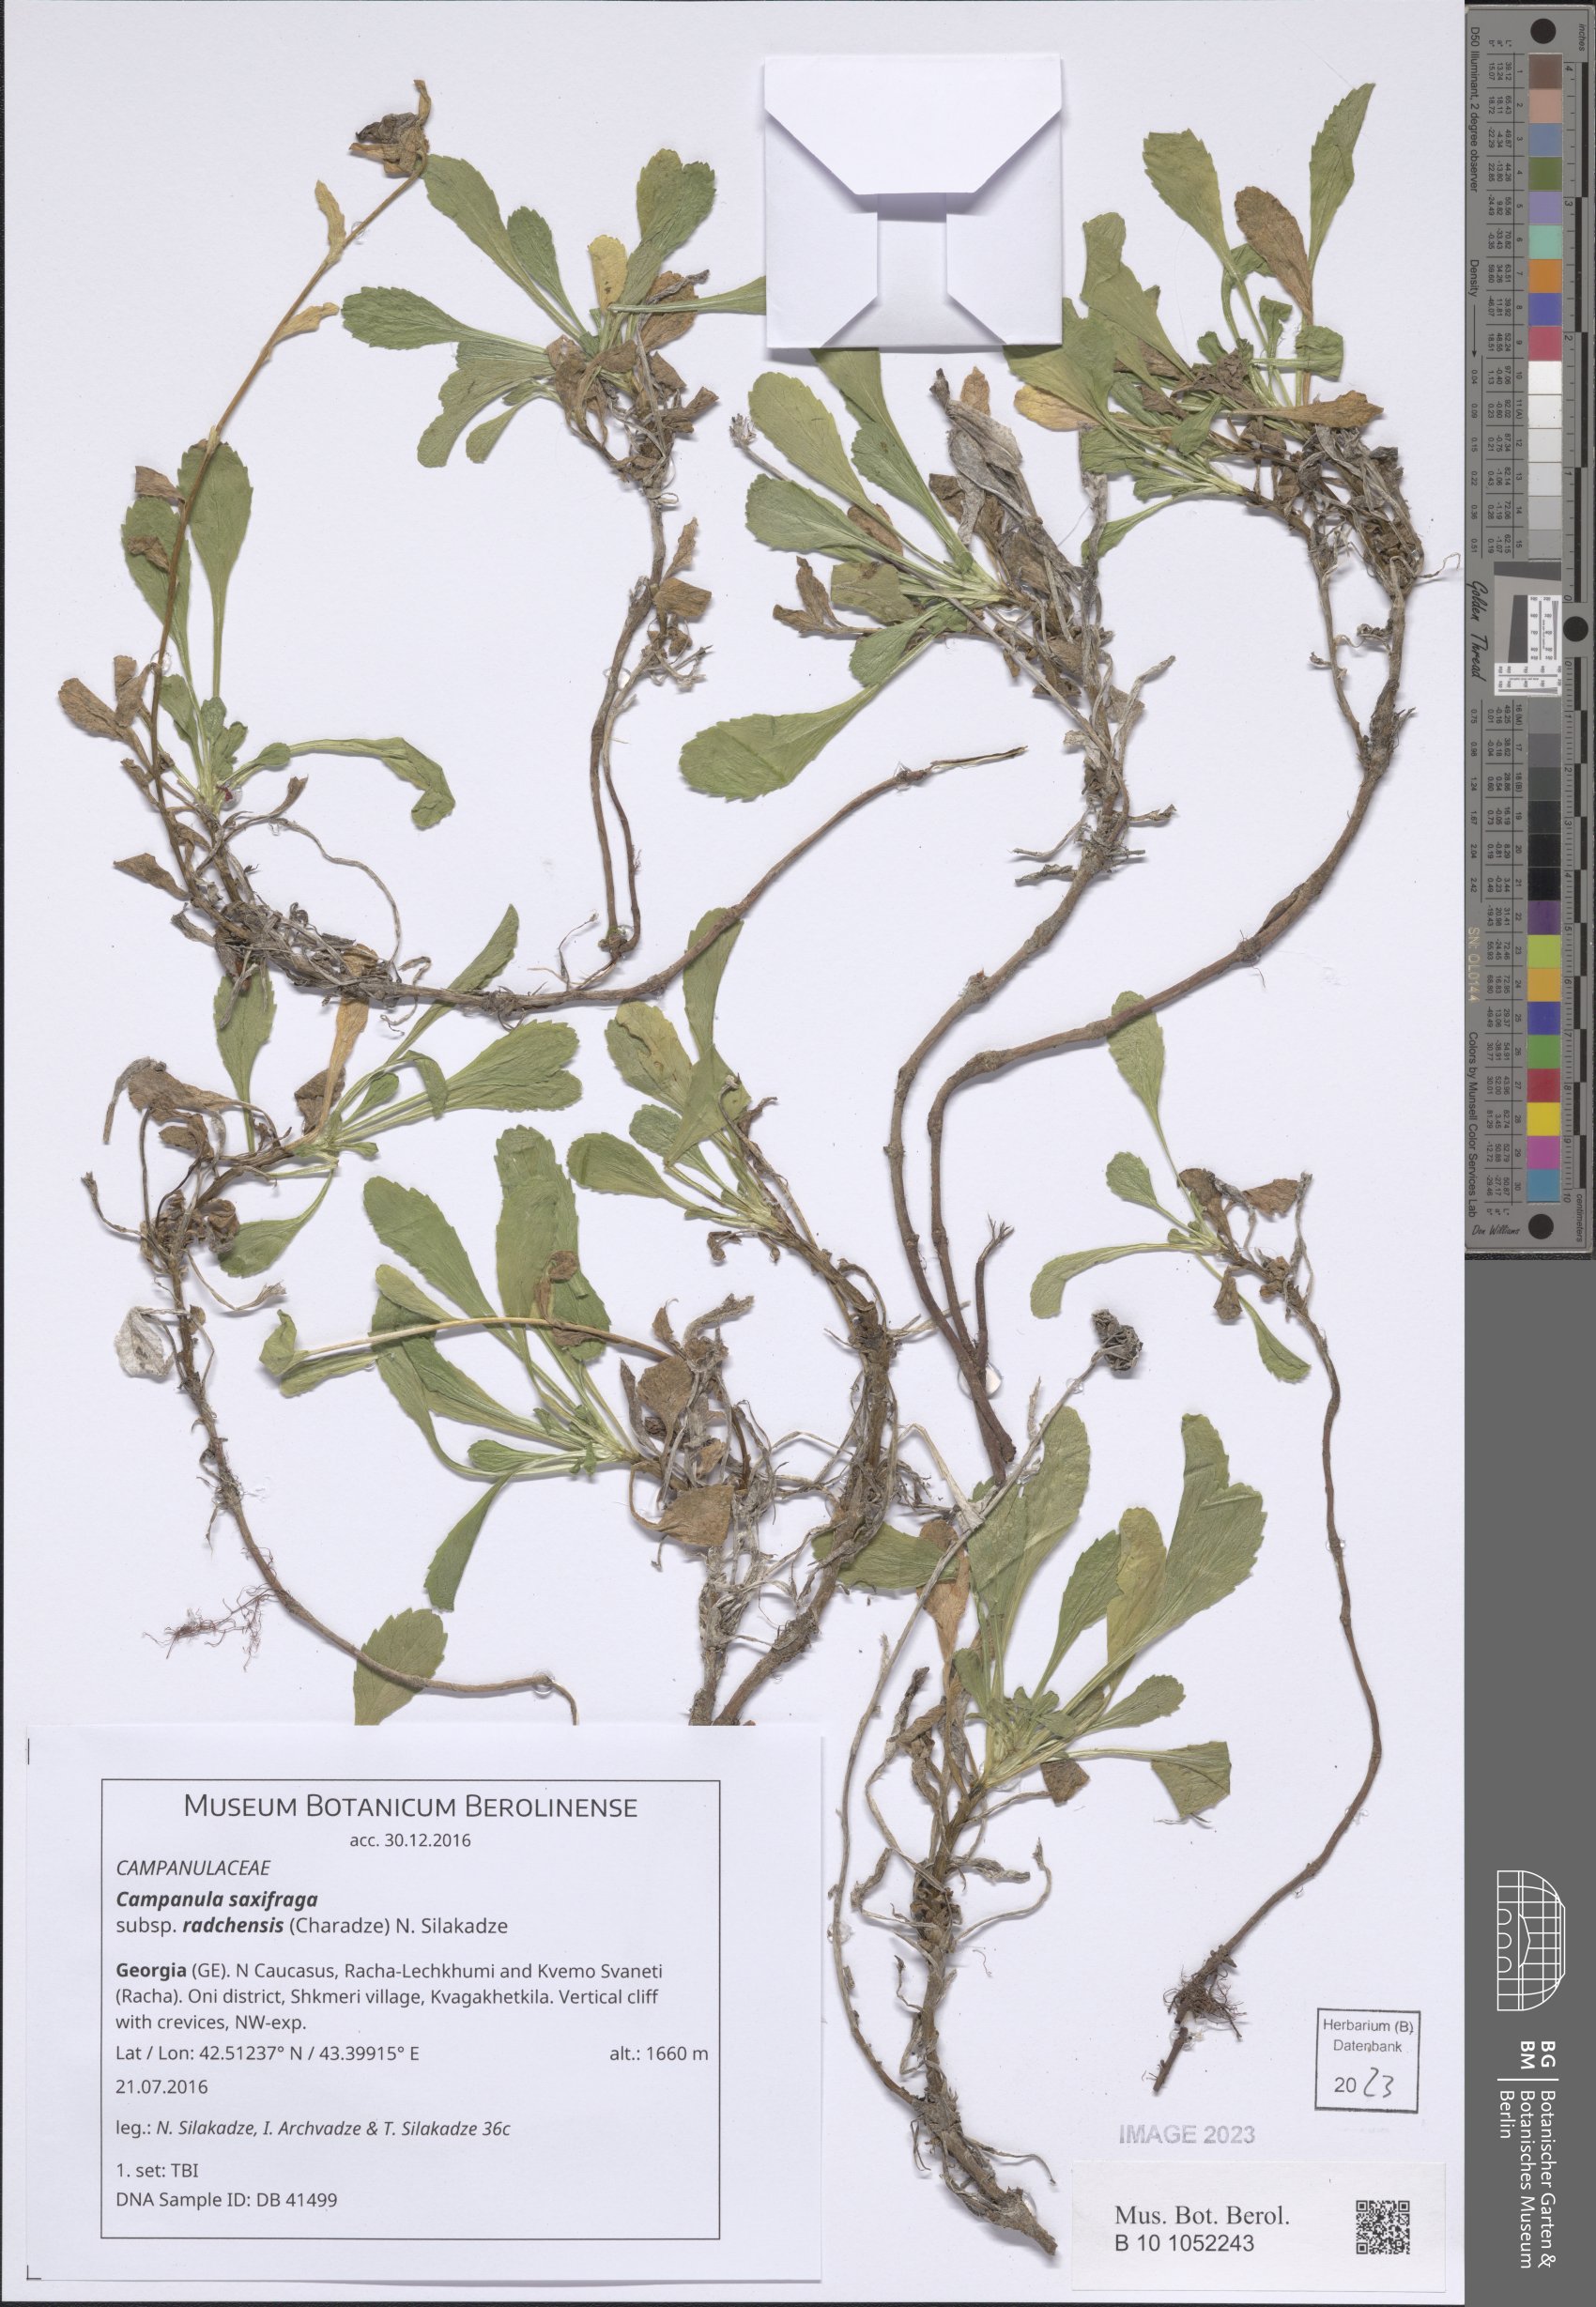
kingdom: Plantae
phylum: Tracheophyta
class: Magnoliopsida
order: Asterales
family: Campanulaceae
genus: Campanula
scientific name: Campanula saxifraga
